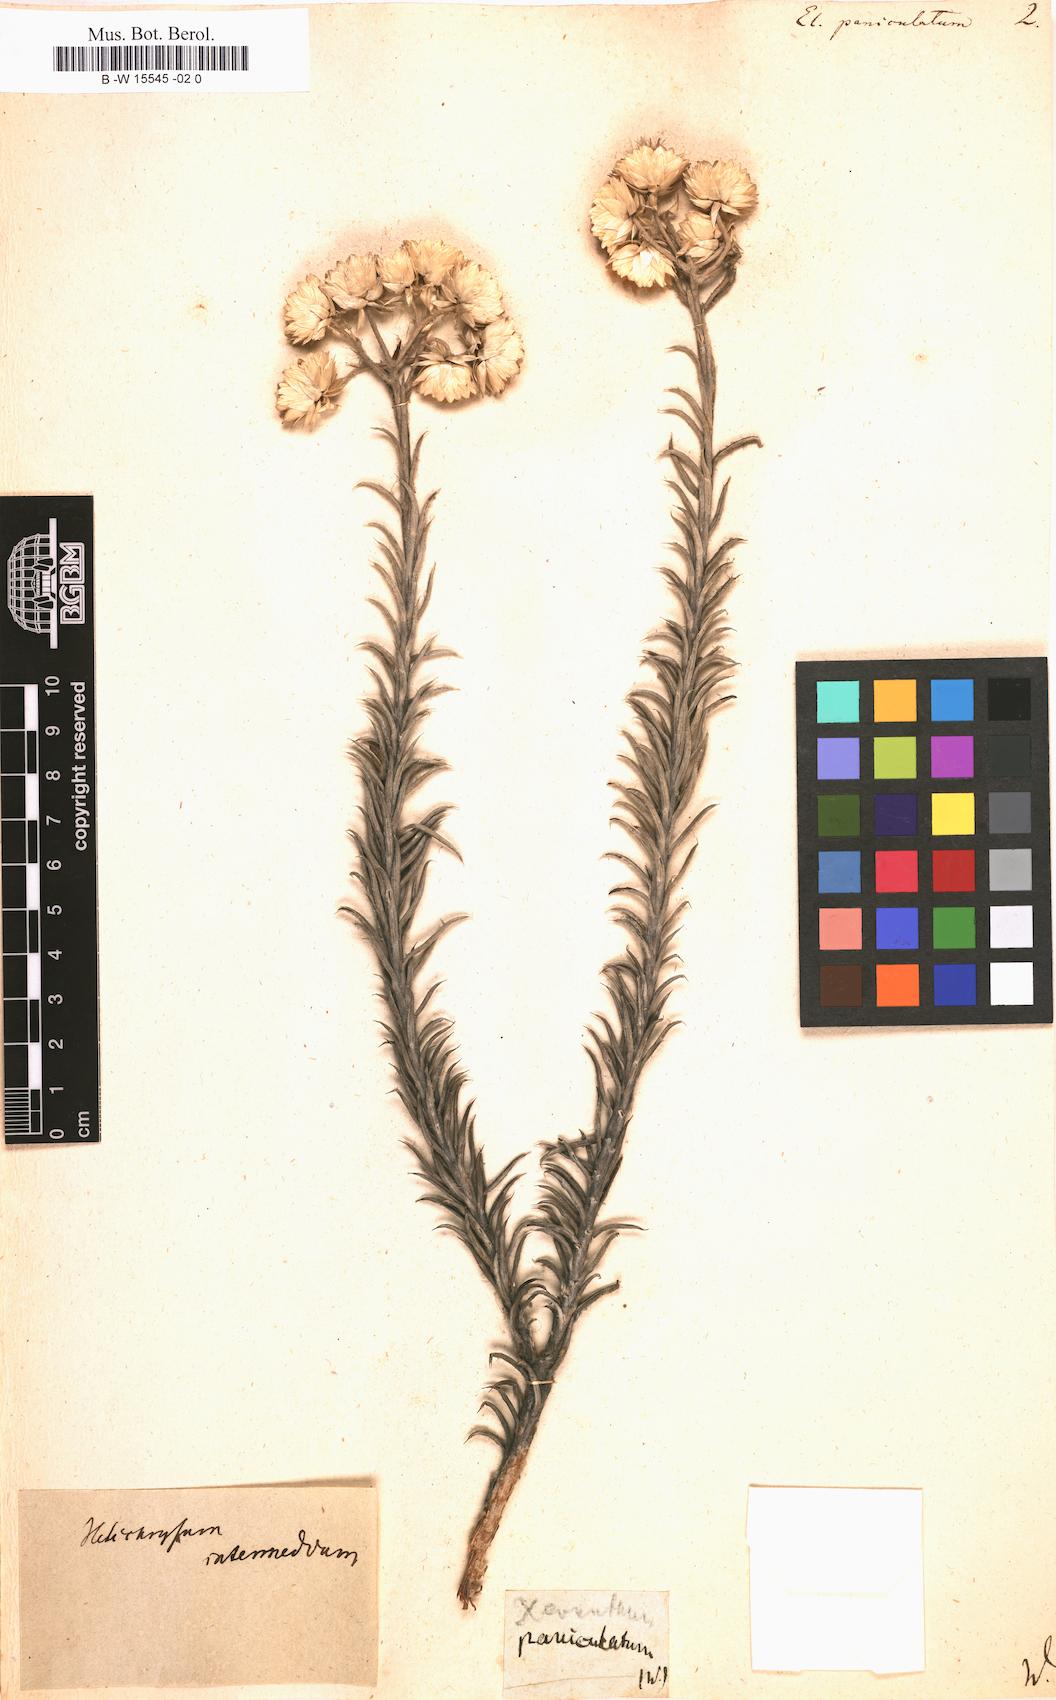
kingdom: Plantae
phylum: Tracheophyta
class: Magnoliopsida
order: Asterales
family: Asteraceae
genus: Helichrysum
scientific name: Helichrysum
